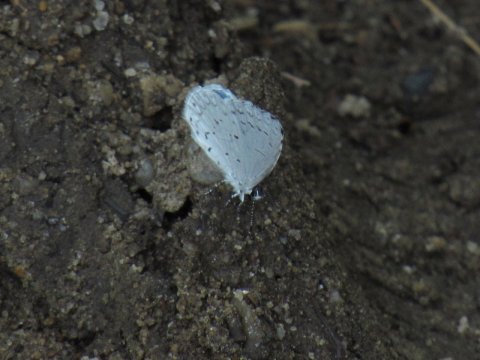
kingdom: Animalia
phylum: Arthropoda
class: Insecta
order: Lepidoptera
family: Lycaenidae
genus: Cyaniris
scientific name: Cyaniris neglecta
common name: Summer Azure
